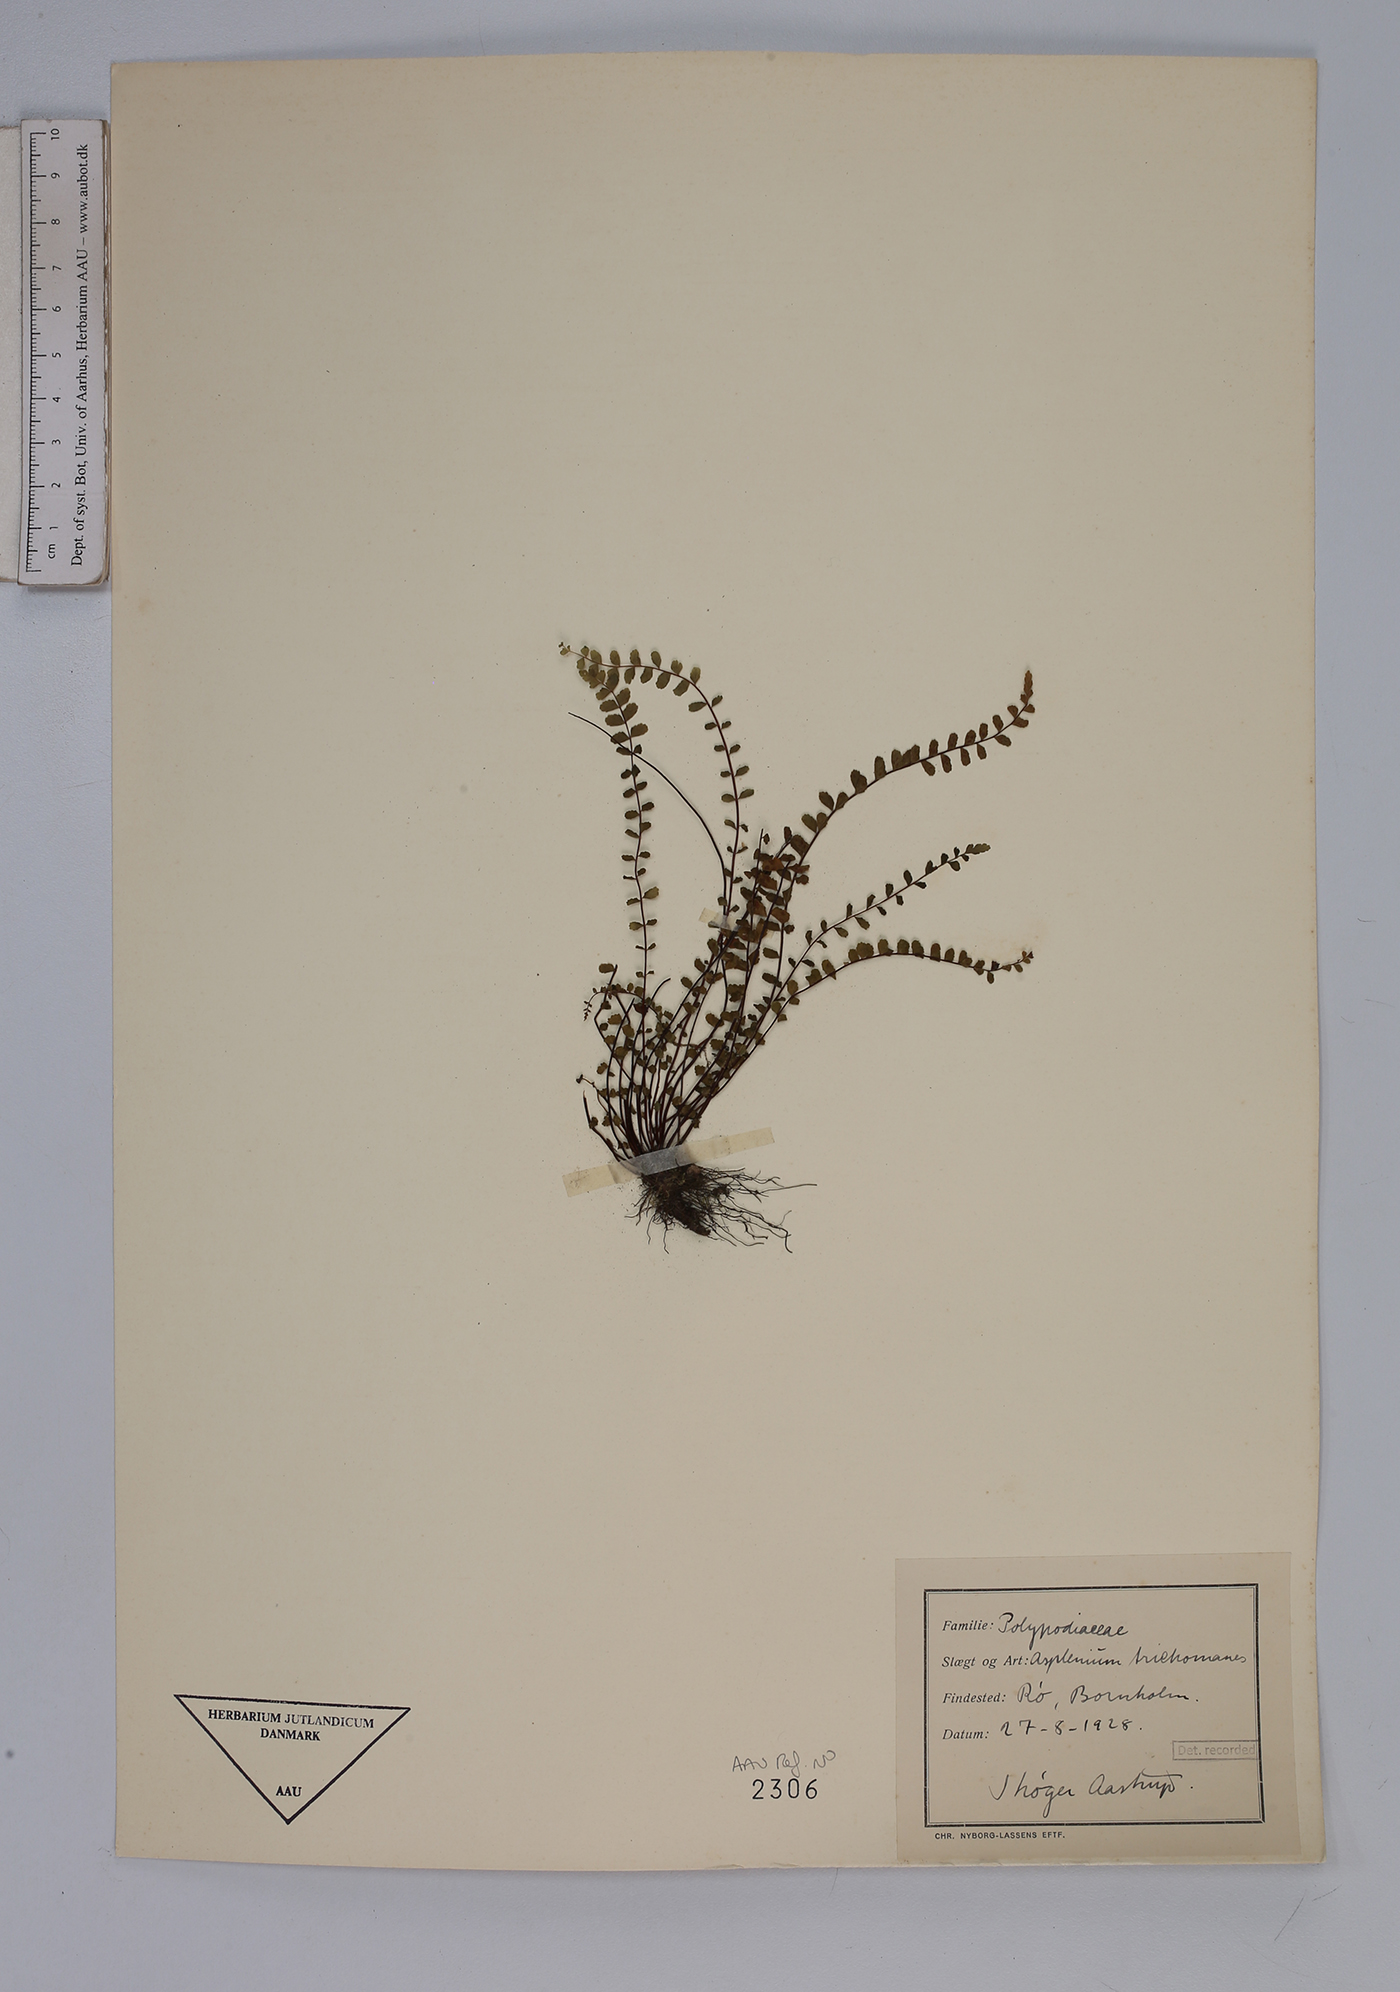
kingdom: Plantae
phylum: Tracheophyta
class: Polypodiopsida
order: Polypodiales
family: Aspleniaceae
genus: Asplenium
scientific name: Asplenium trichomanes
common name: Maidenhair spleenwort
